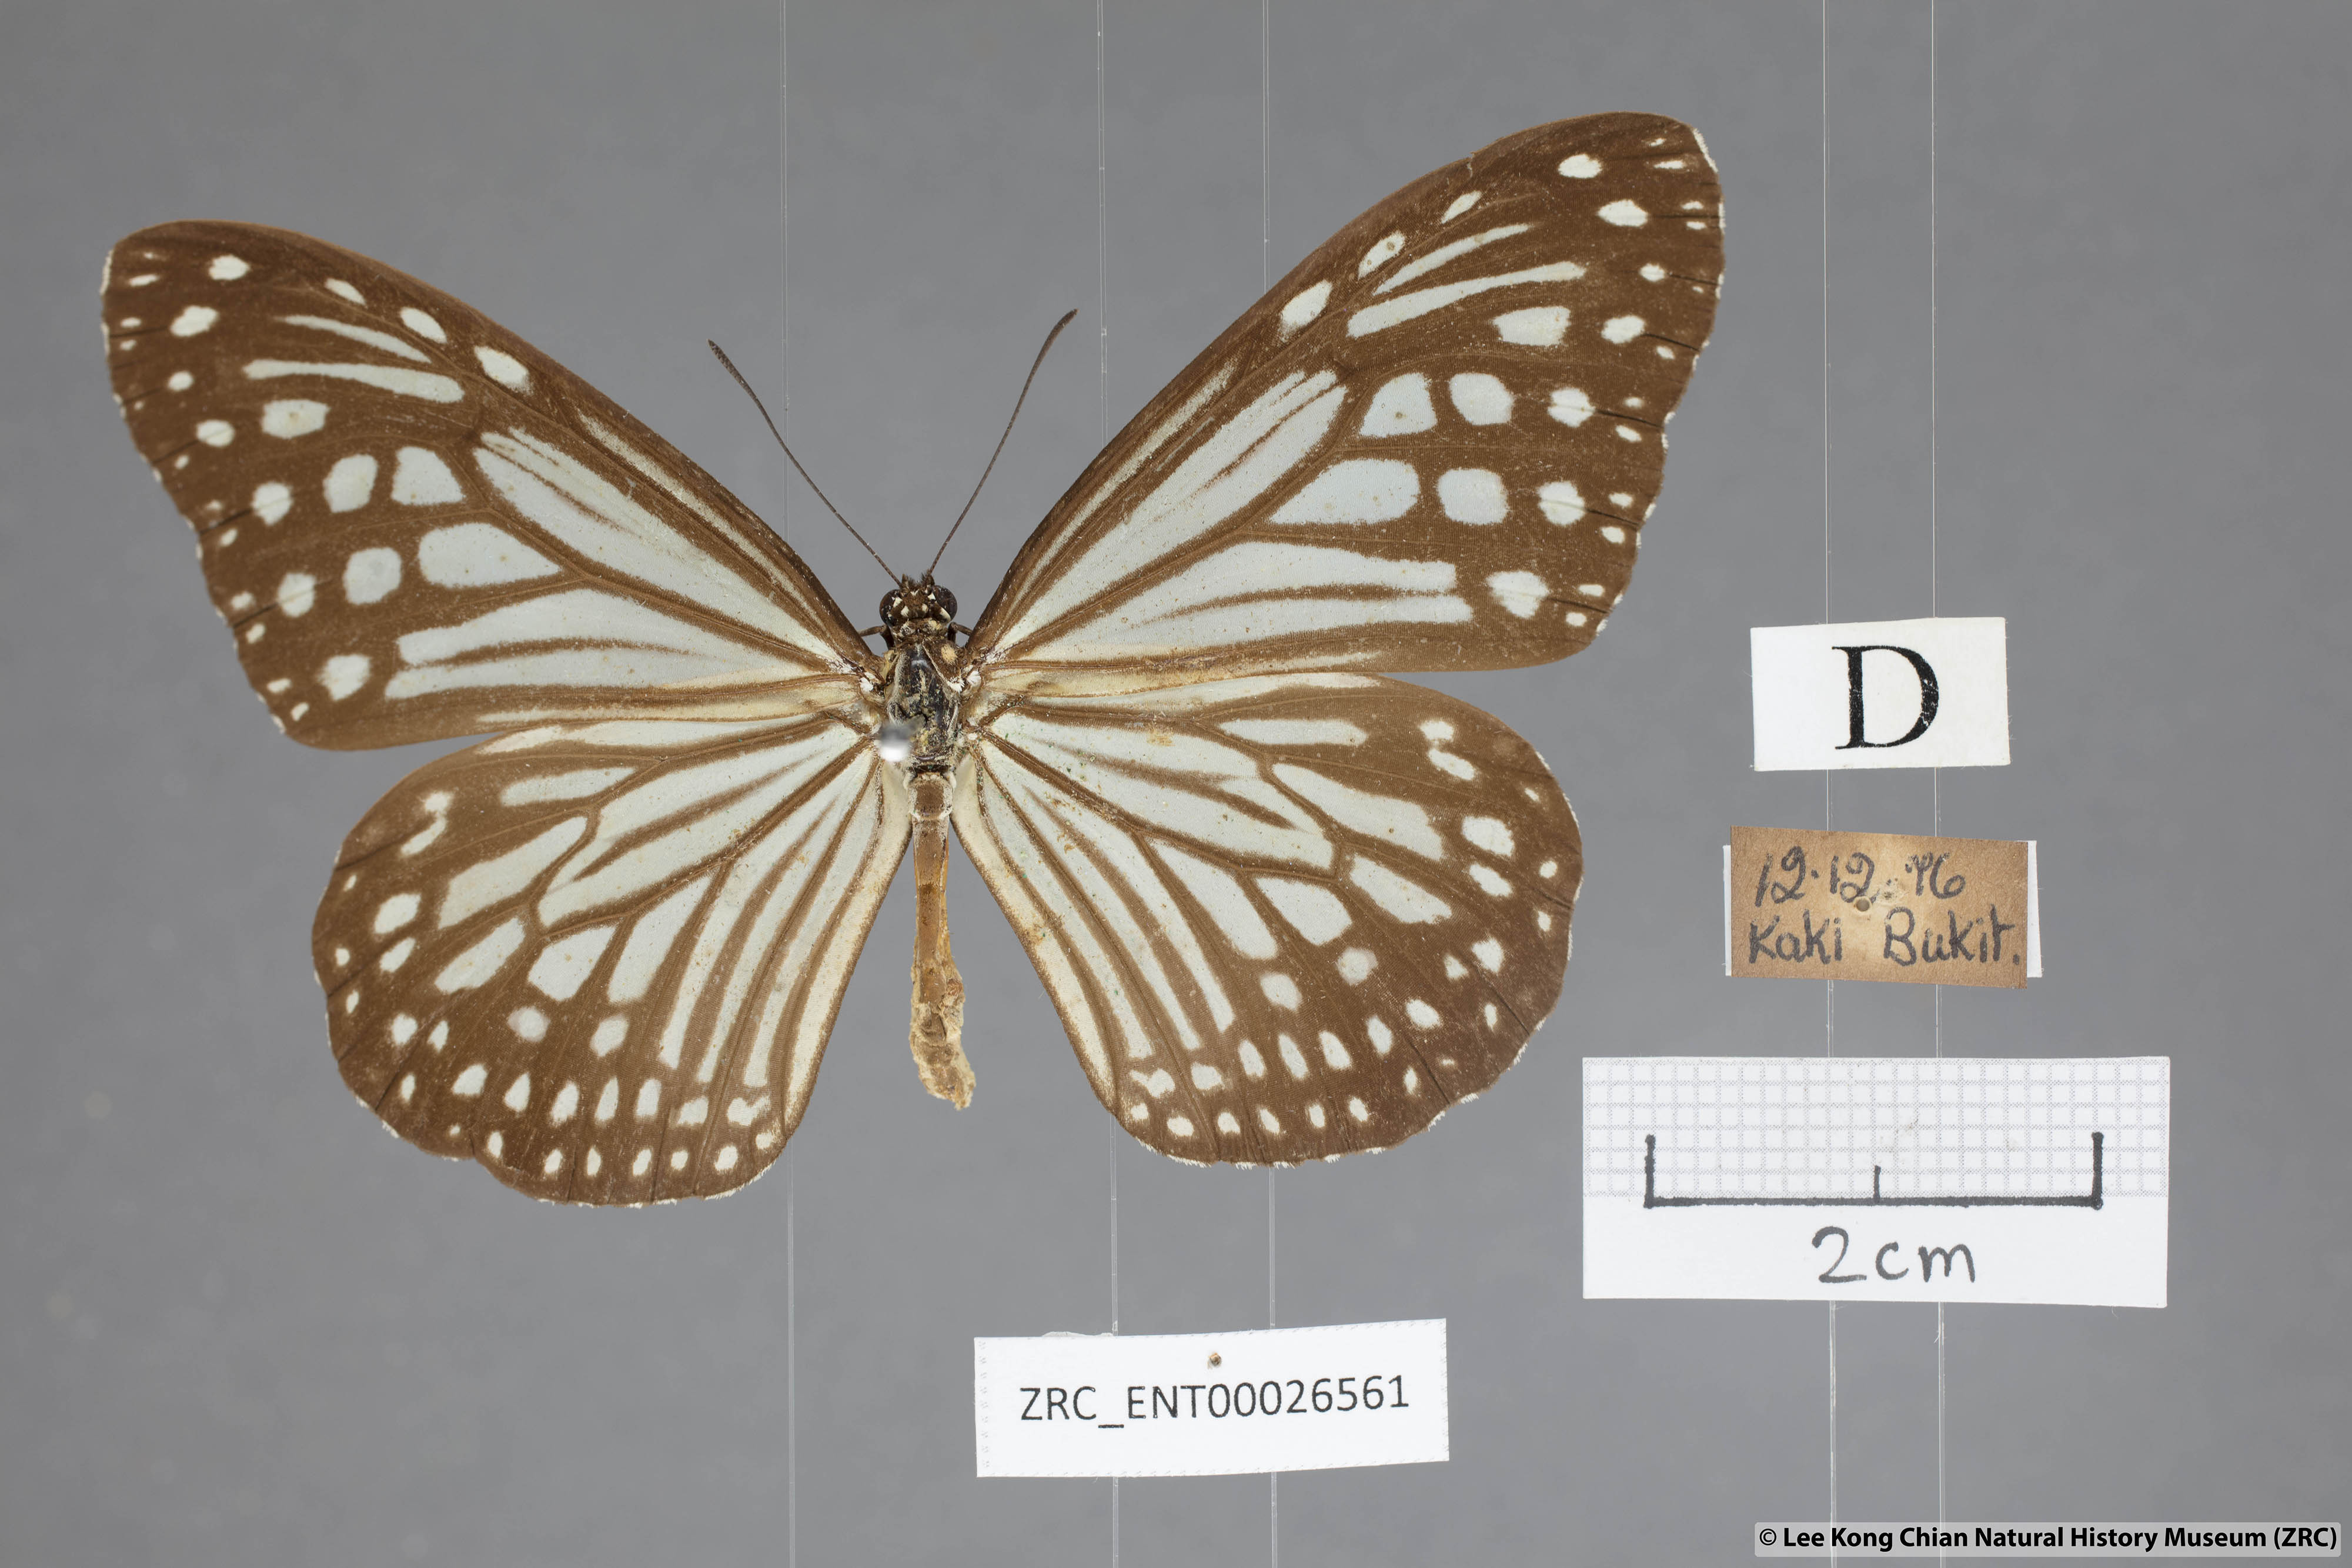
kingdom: Animalia
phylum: Arthropoda
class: Insecta
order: Lepidoptera
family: Nymphalidae
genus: Parantica
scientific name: Parantica aglea
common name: Glassy tiger
